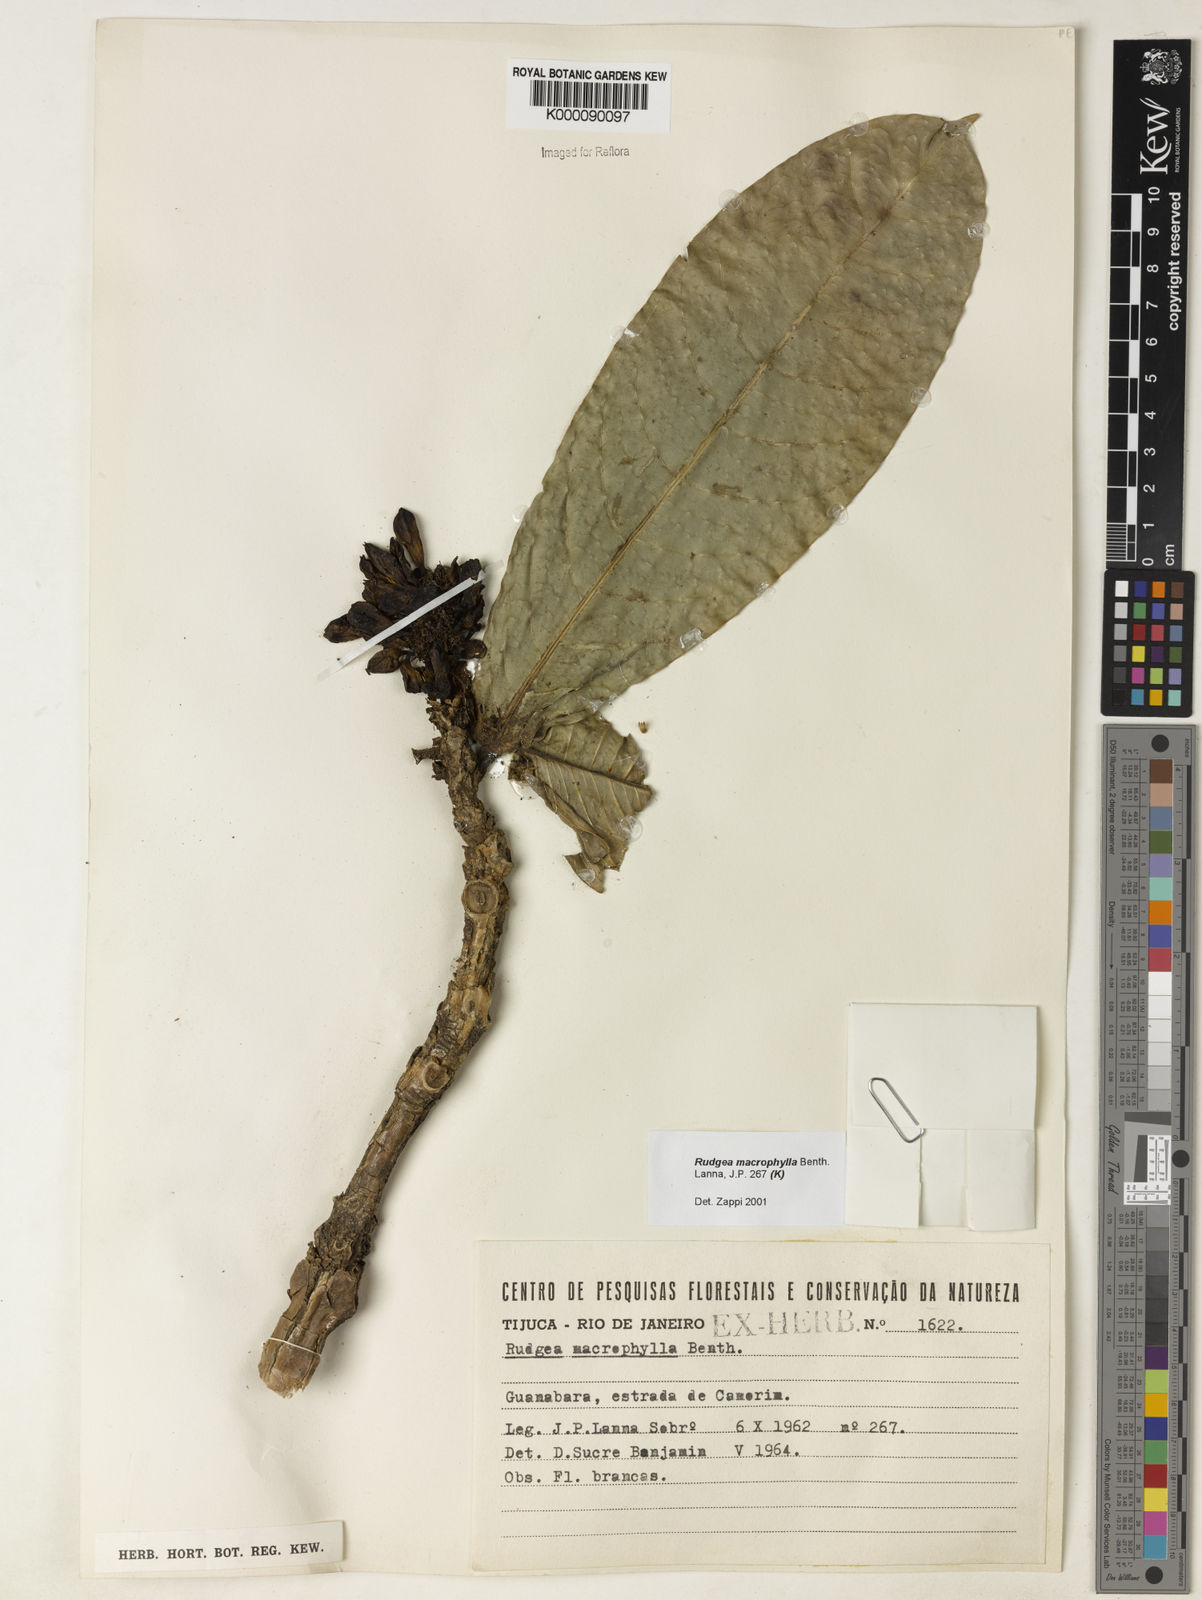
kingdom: Plantae
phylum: Tracheophyta
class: Magnoliopsida
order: Gentianales
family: Rubiaceae
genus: Rudgea
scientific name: Rudgea macrophylla
